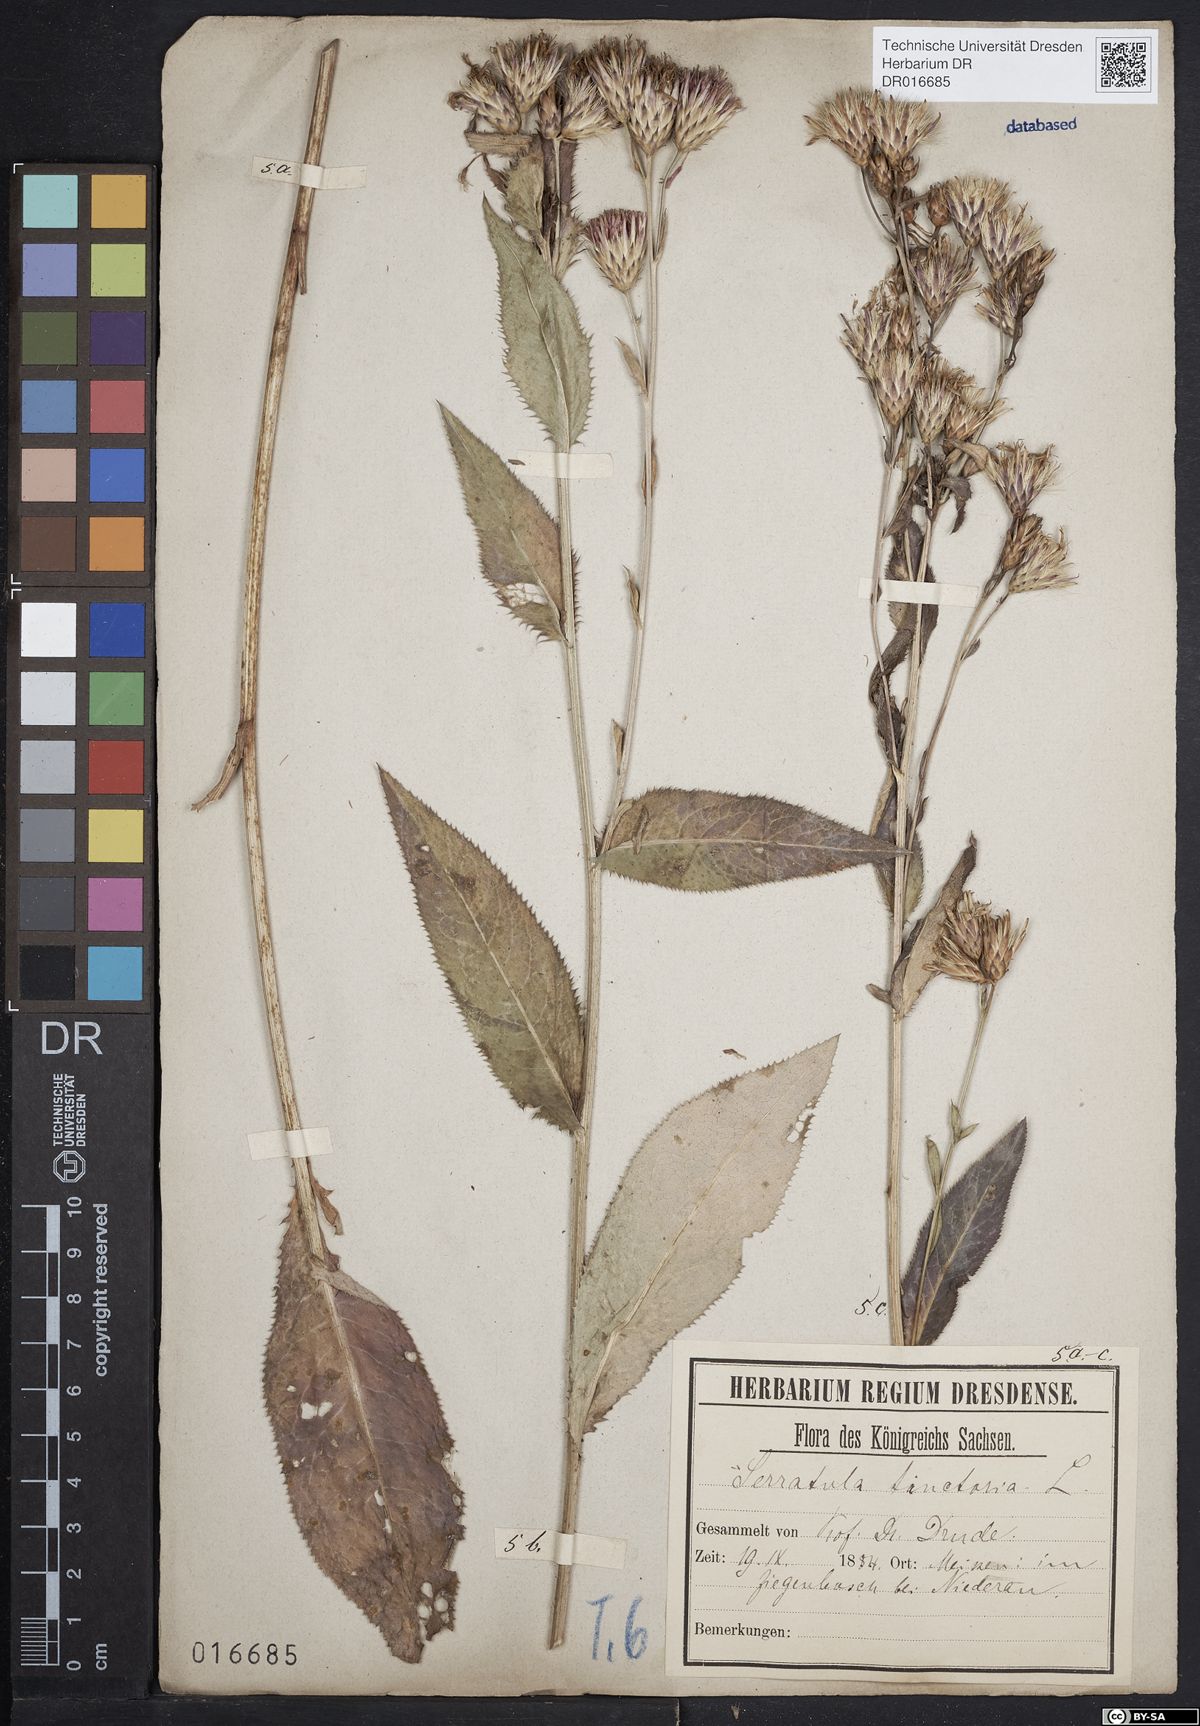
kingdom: Plantae
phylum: Tracheophyta
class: Magnoliopsida
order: Asterales
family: Asteraceae
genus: Serratula
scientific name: Serratula tinctoria
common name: Saw-wort
